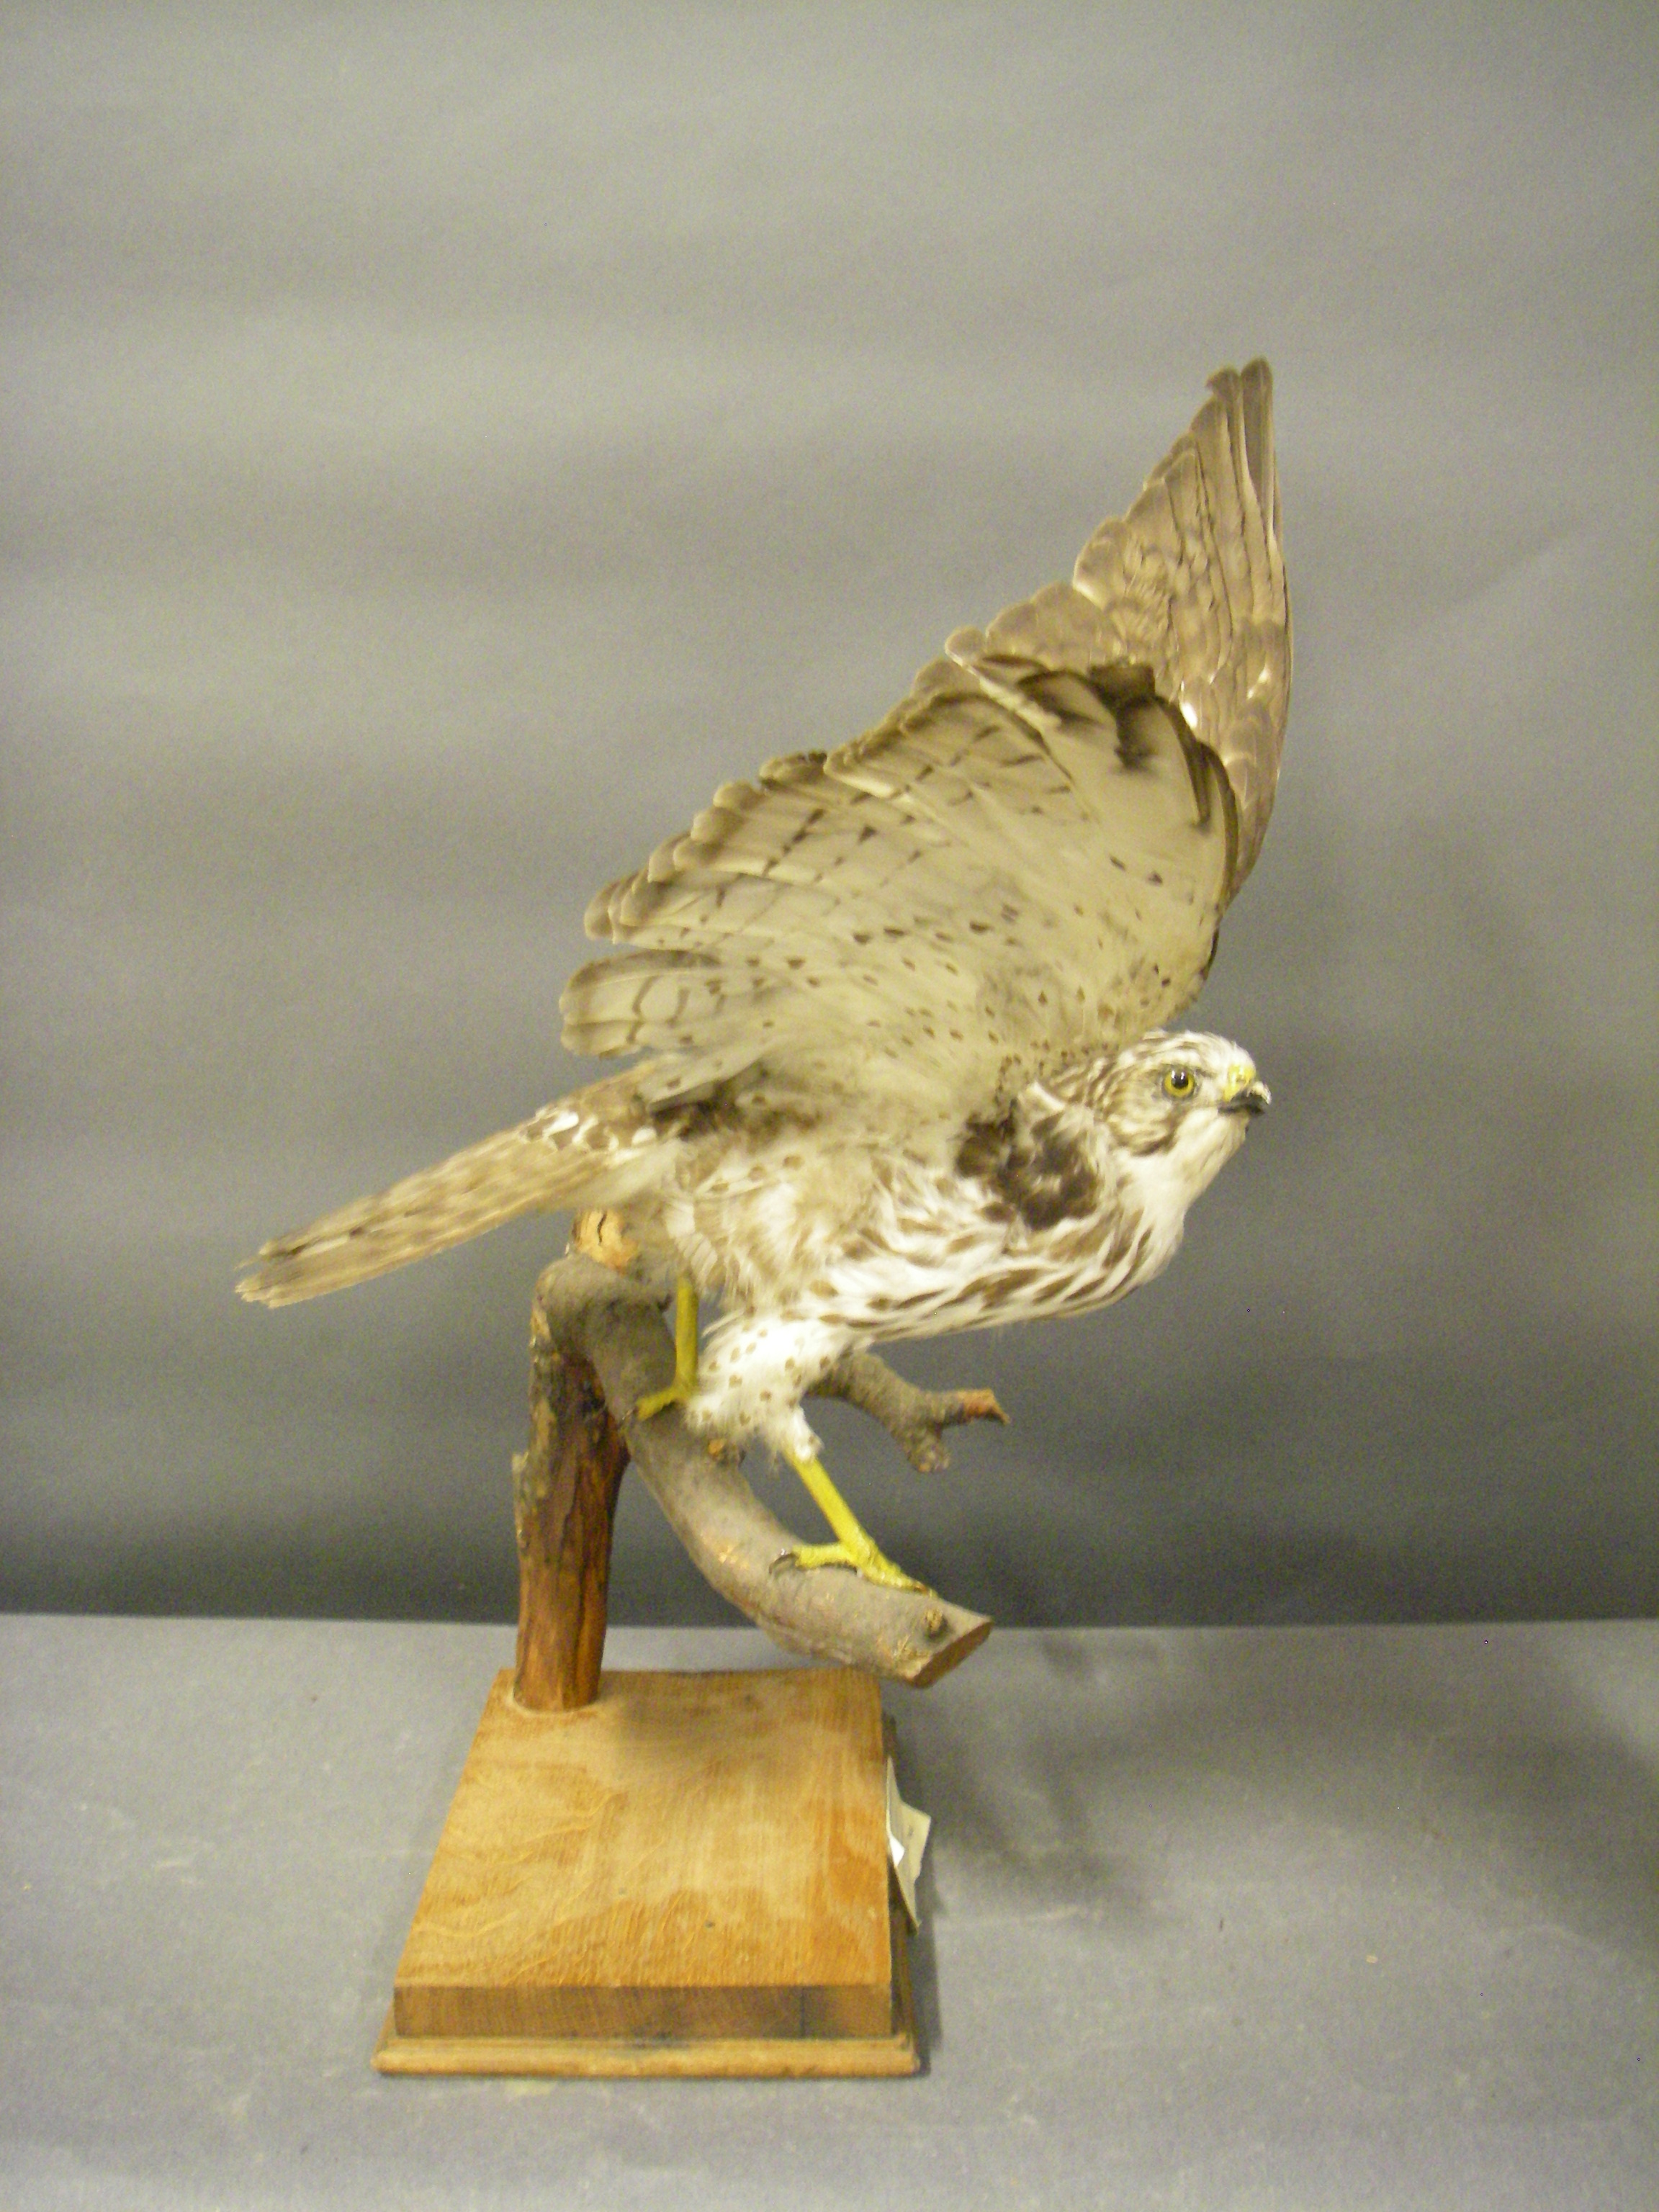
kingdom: Animalia
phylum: Chordata
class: Aves
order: Accipitriformes
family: Accipitridae
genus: Buteo
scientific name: Buteo platypterus
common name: Broad-winged hawk
